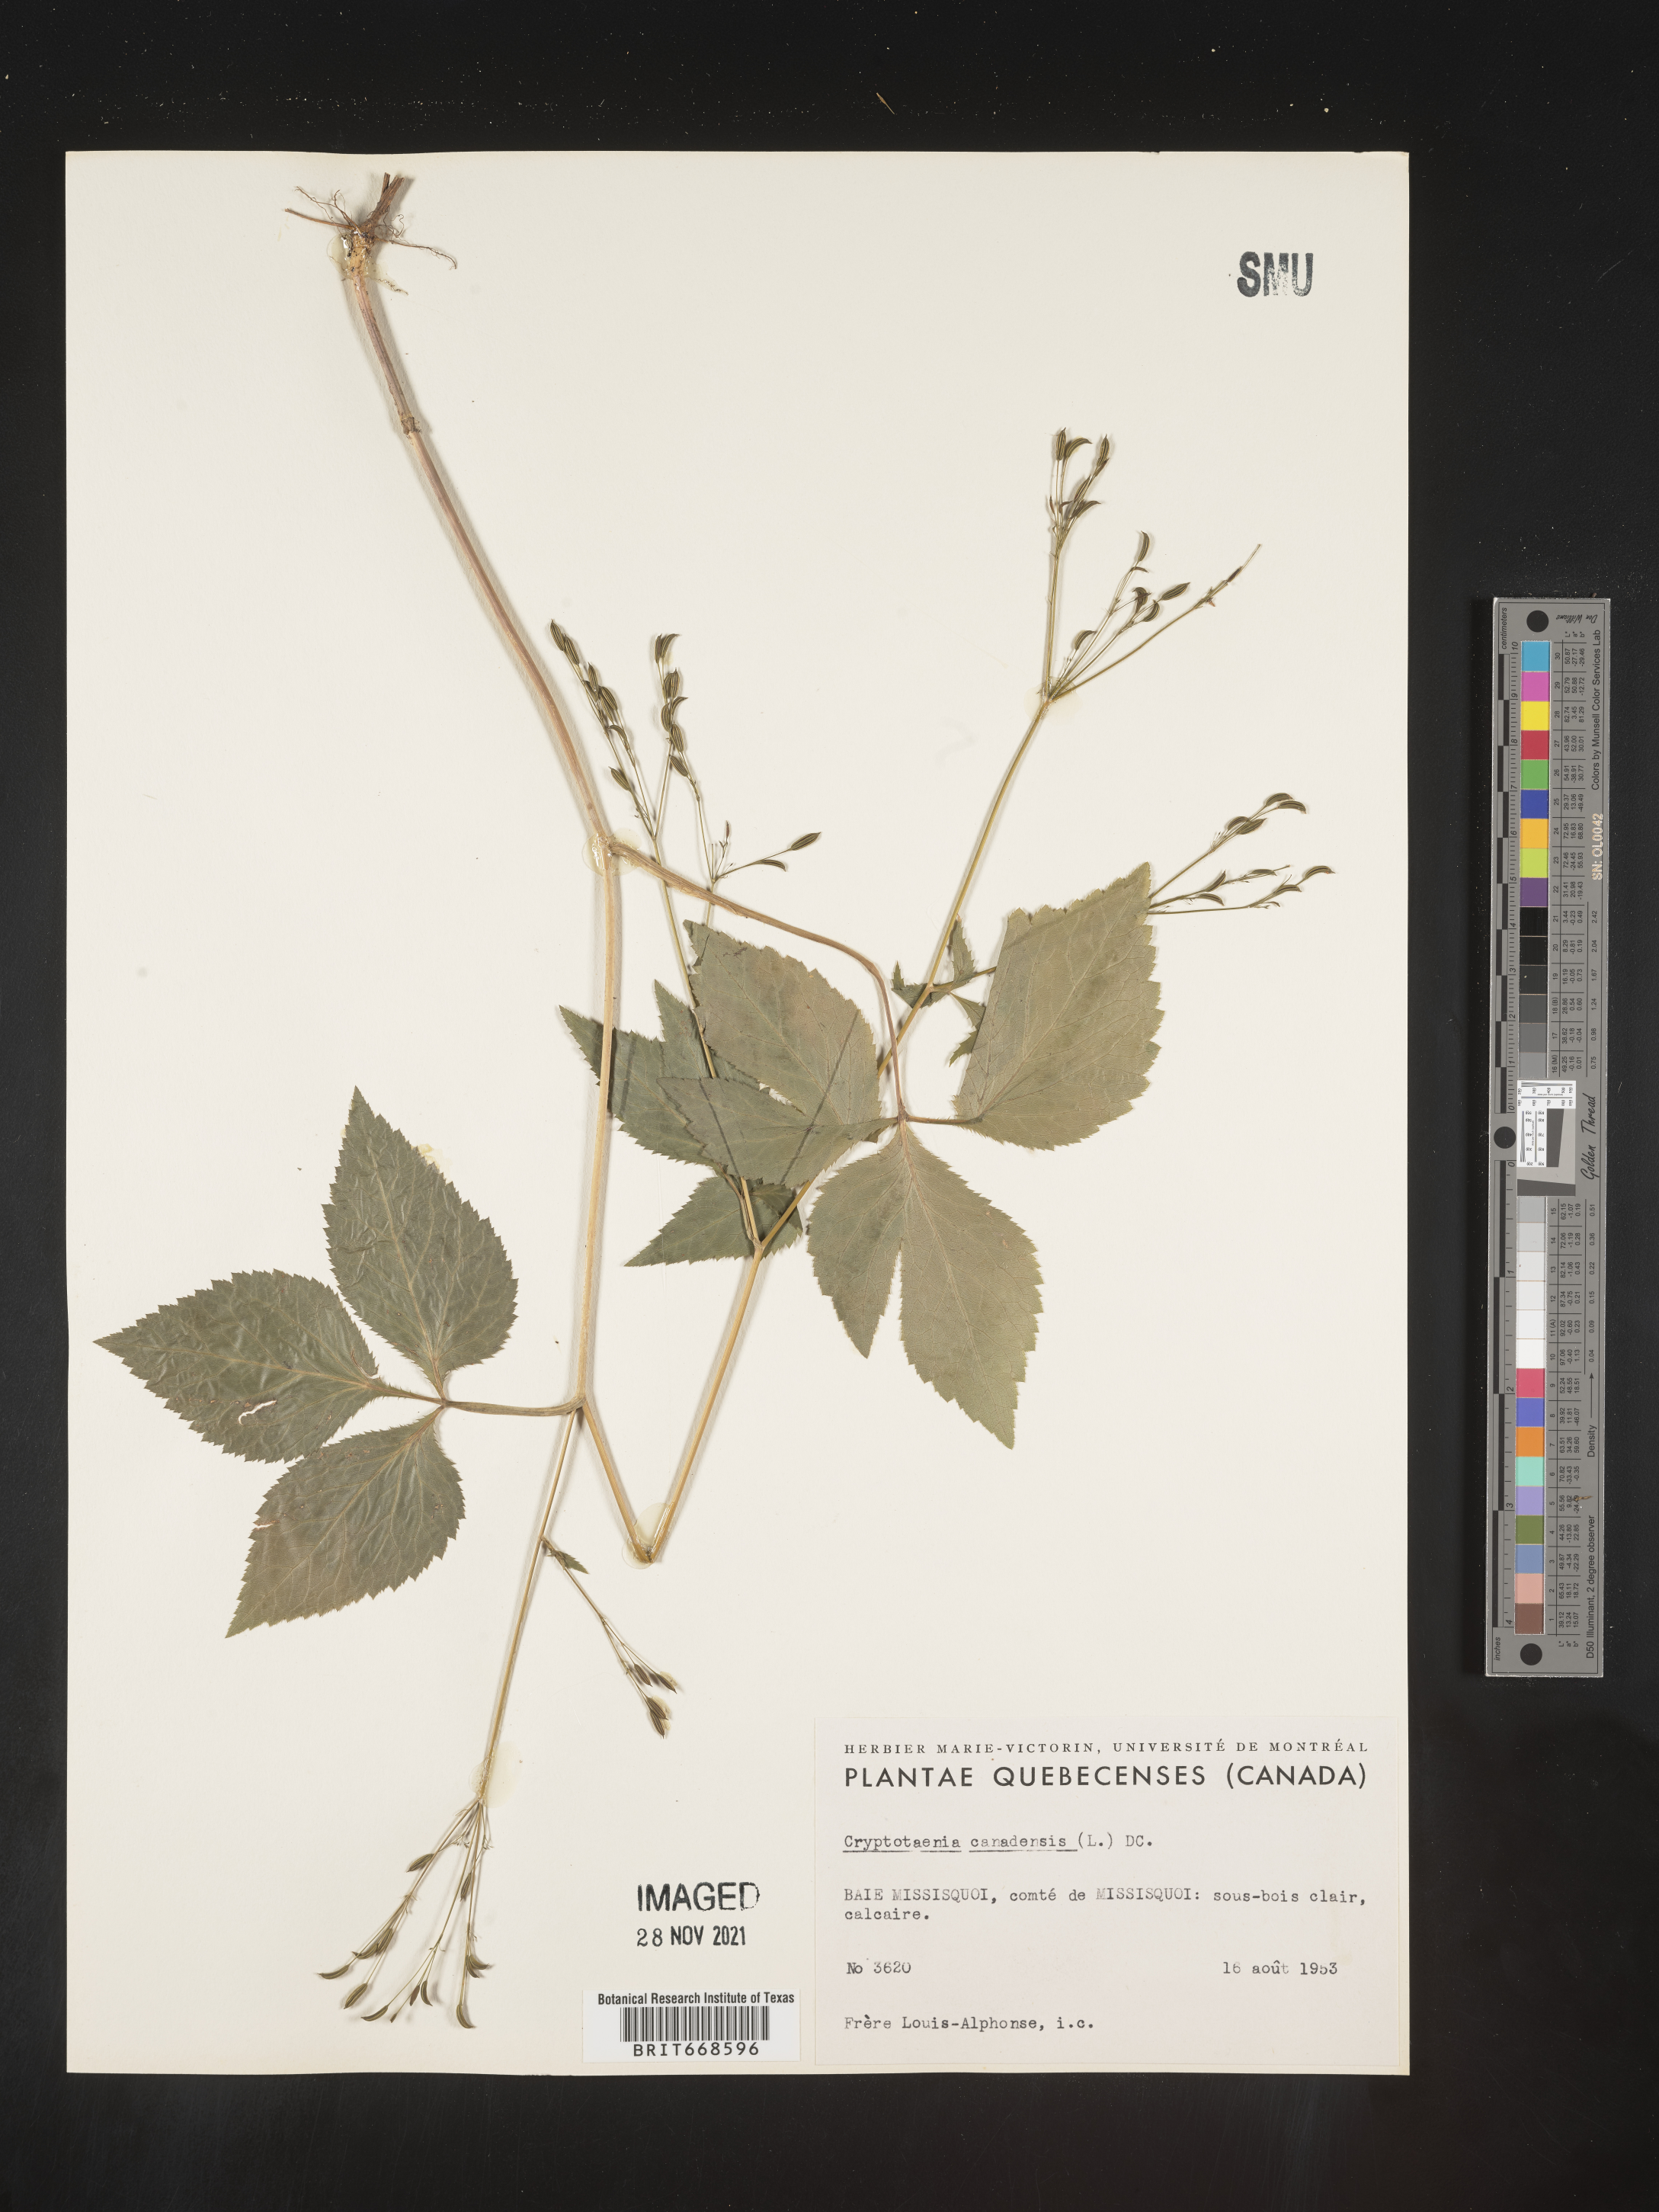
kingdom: Plantae
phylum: Tracheophyta
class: Magnoliopsida
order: Apiales
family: Apiaceae
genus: Cryptotaenia
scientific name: Cryptotaenia canadensis
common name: Honewort
